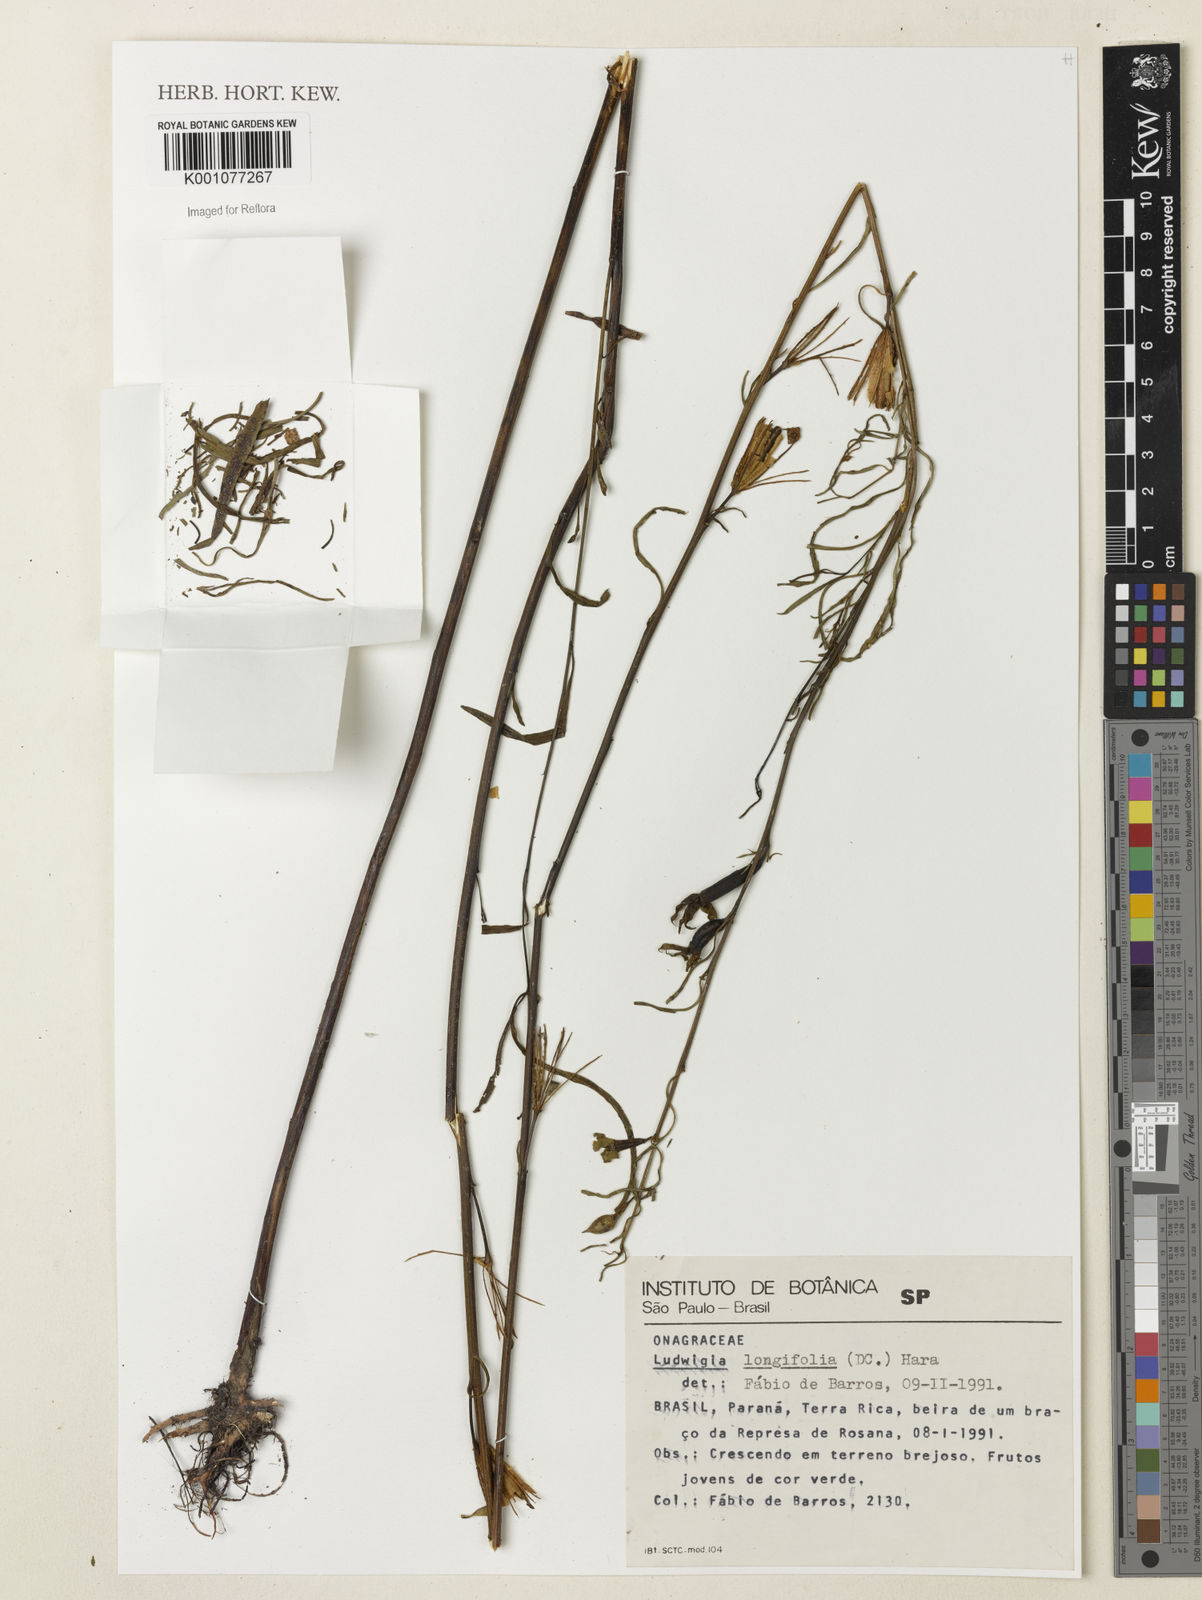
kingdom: Plantae
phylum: Tracheophyta
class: Magnoliopsida
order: Myrtales
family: Onagraceae
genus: Ludwigia
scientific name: Ludwigia longifolia
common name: Longleaf primrose-willow
